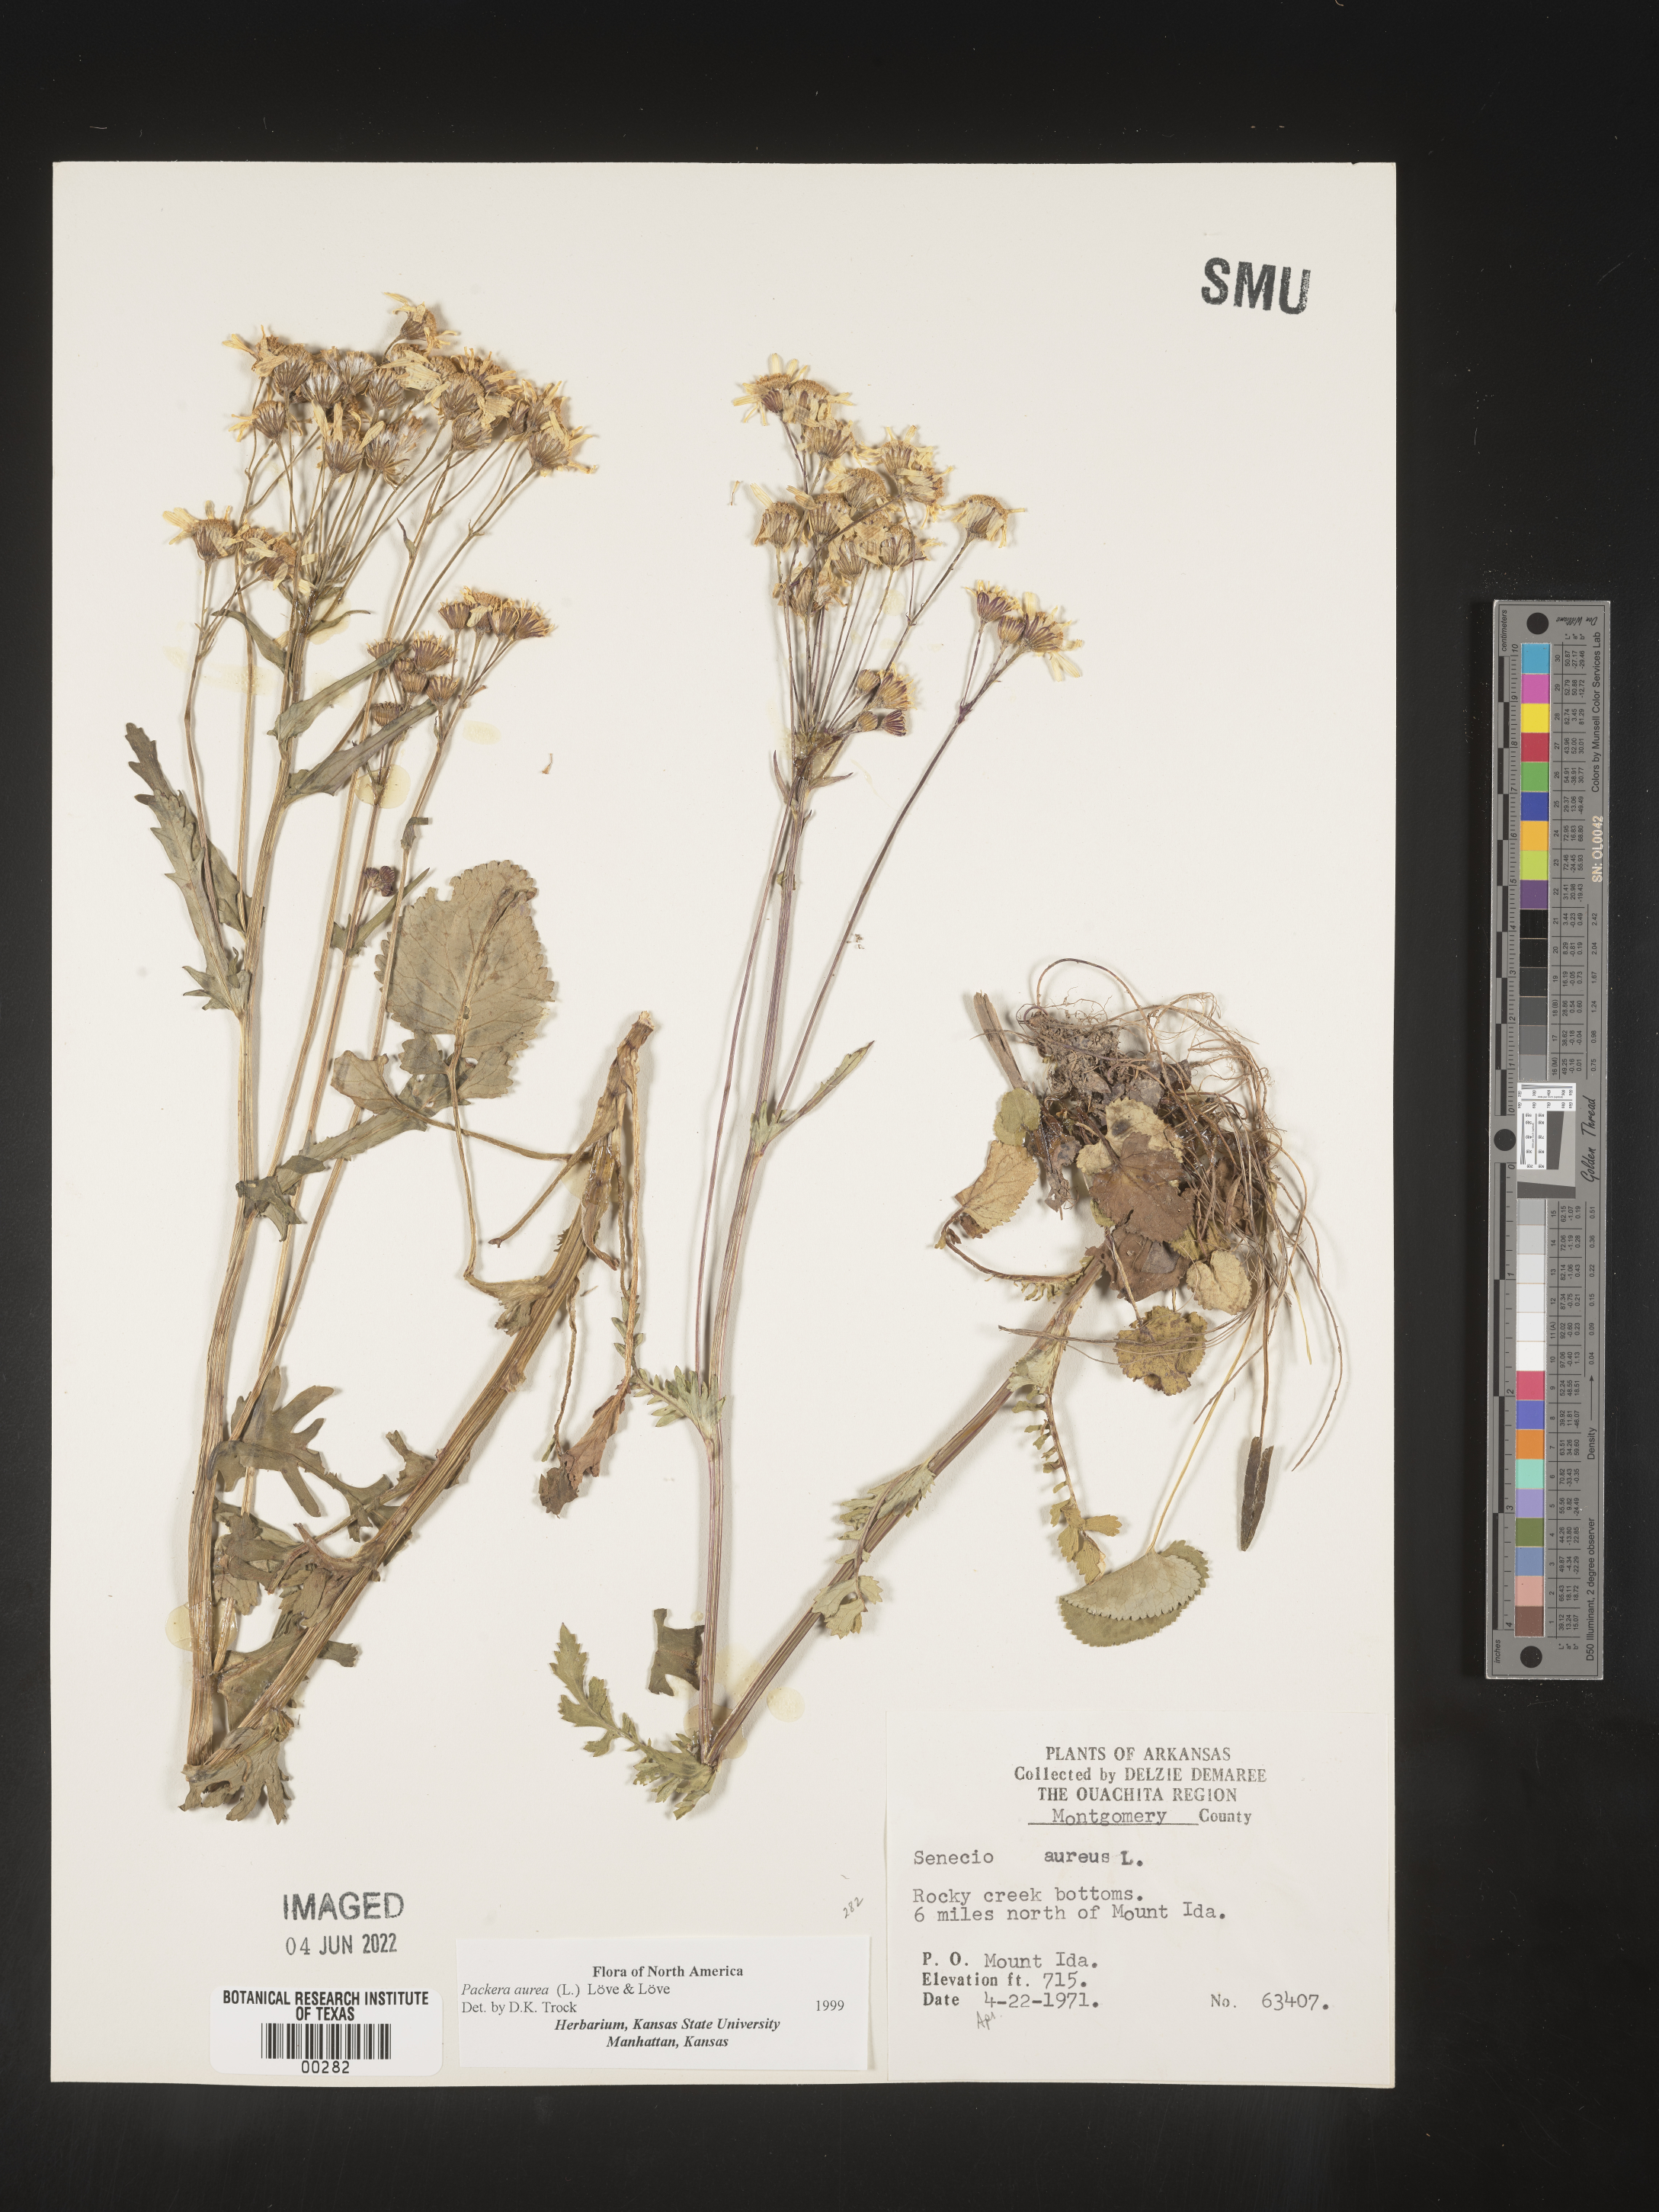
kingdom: Plantae
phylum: Tracheophyta
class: Magnoliopsida
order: Asterales
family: Asteraceae
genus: Packera
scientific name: Packera aurea
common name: Golden groundsel
